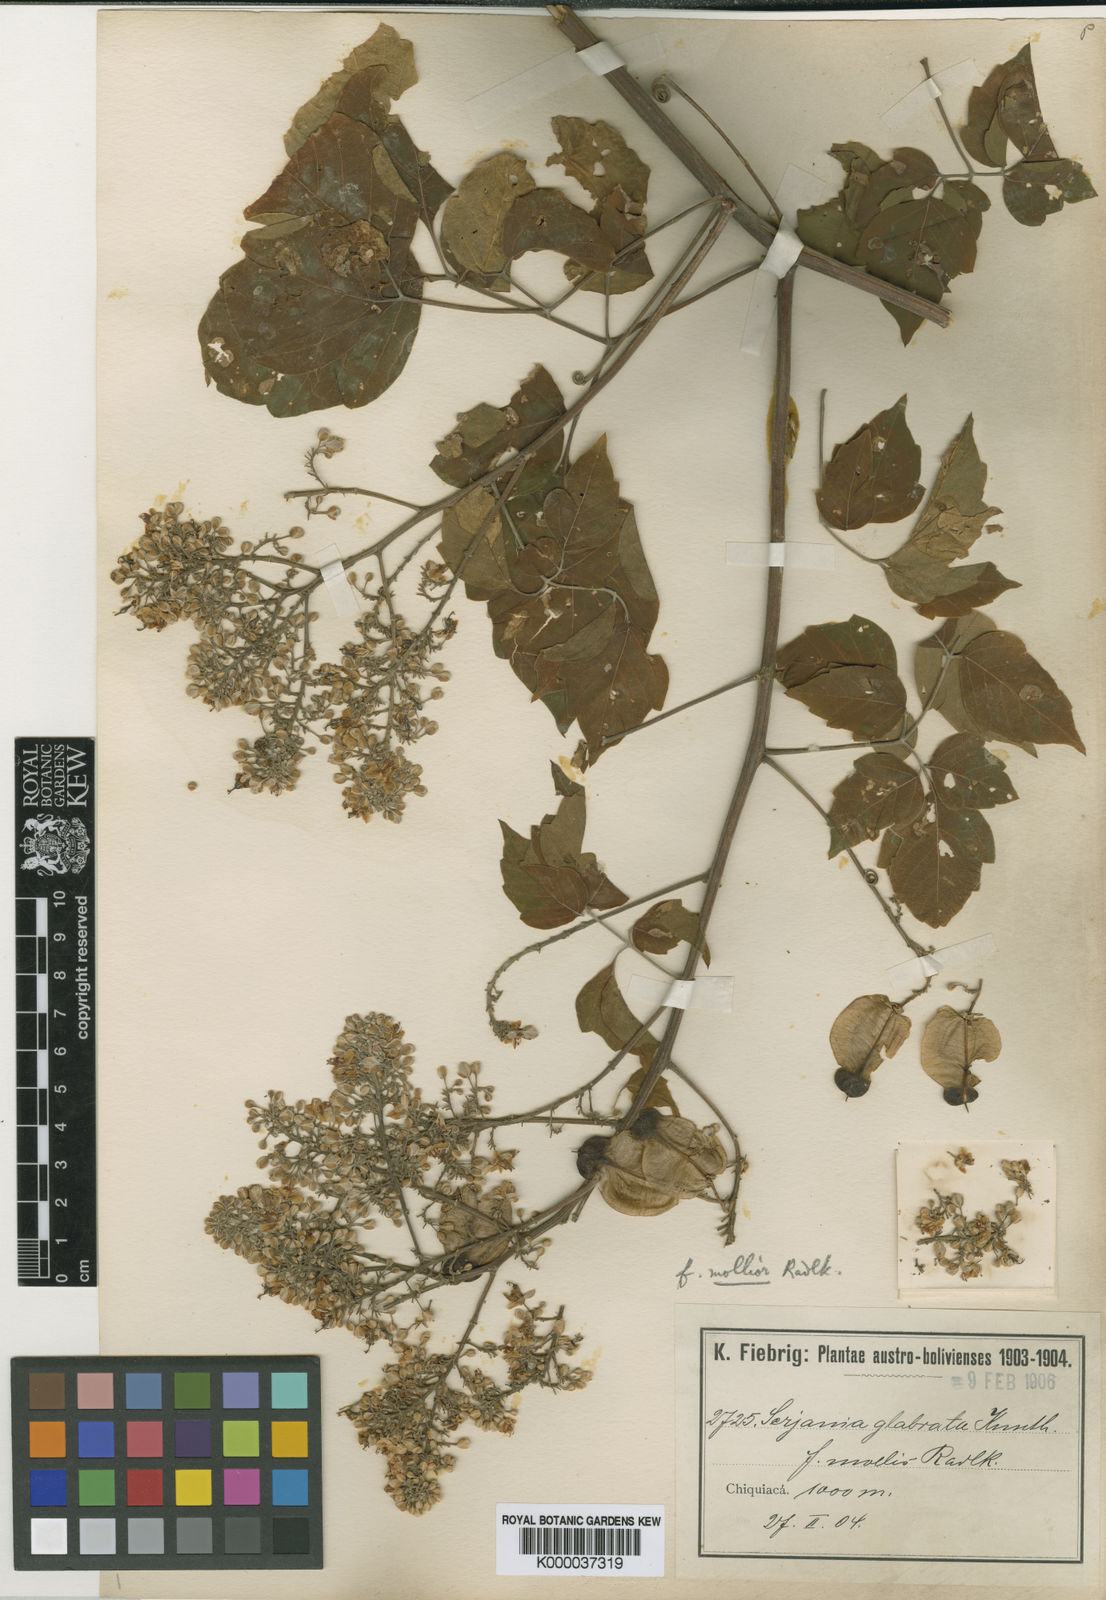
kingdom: Plantae
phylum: Tracheophyta
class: Magnoliopsida
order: Sapindales
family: Sapindaceae
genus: Serjania
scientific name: Serjania glabrata
